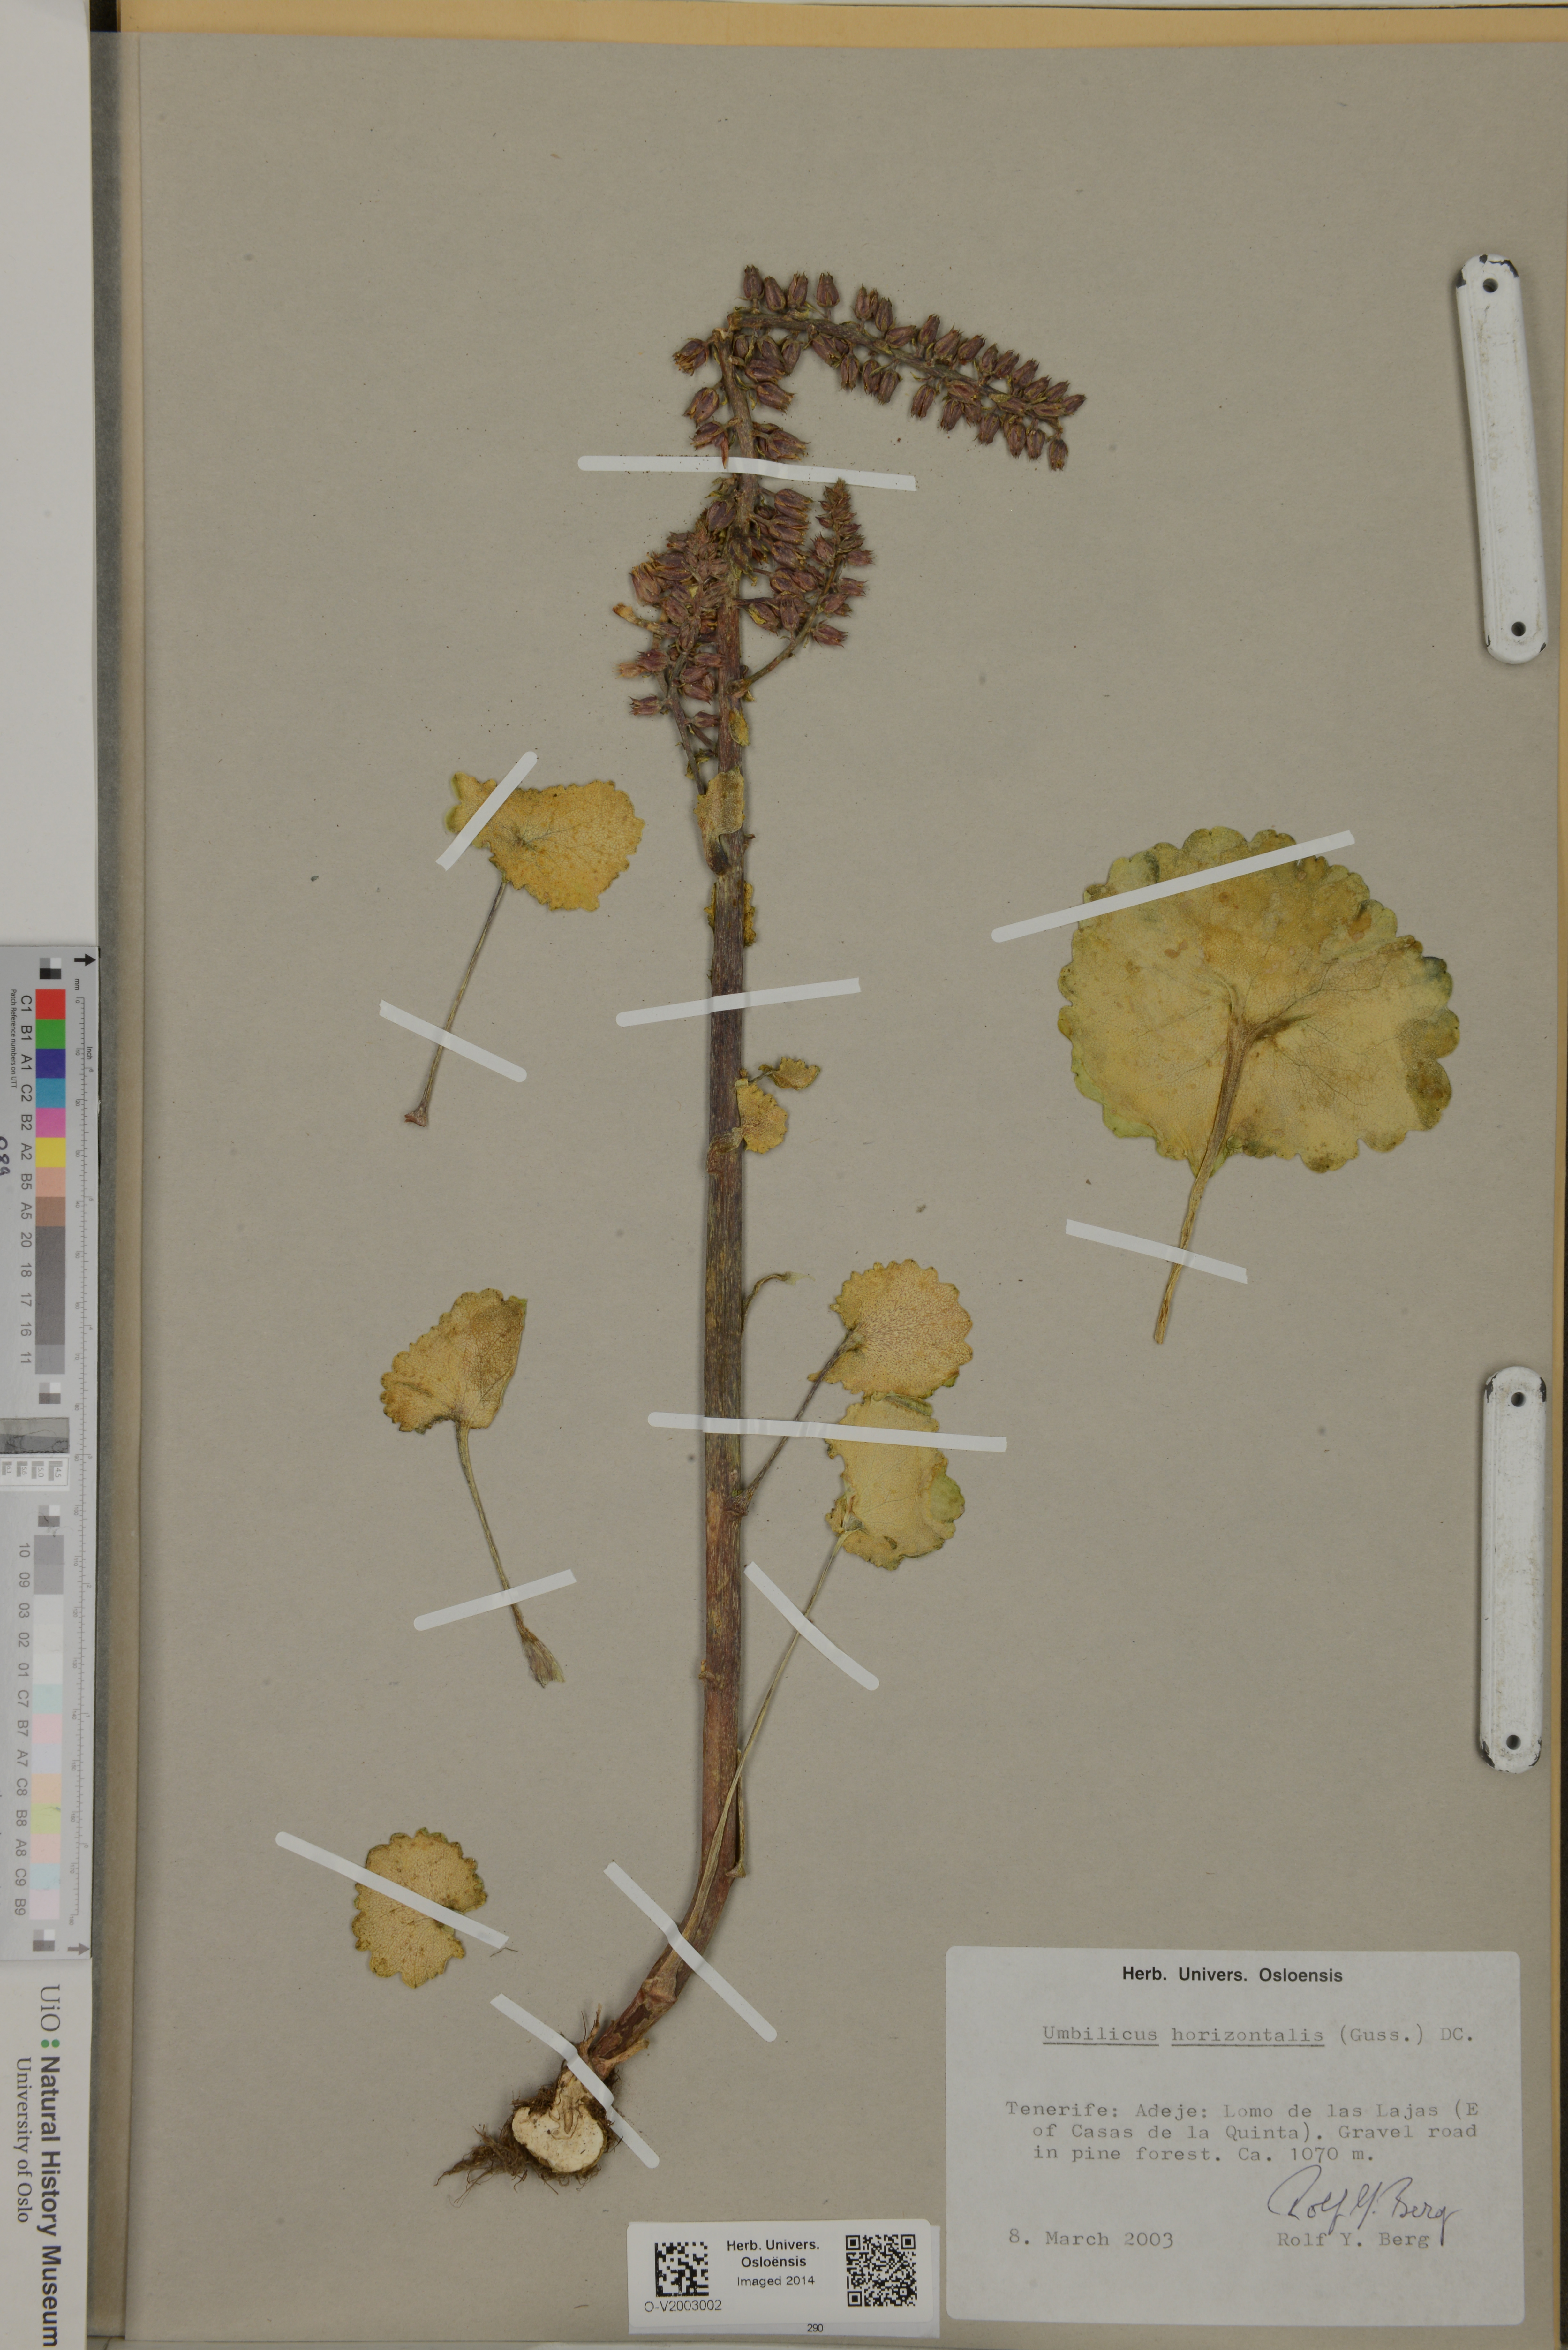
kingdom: Plantae
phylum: Tracheophyta
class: Magnoliopsida
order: Saxifragales
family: Crassulaceae
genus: Umbilicus
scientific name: Umbilicus horizontalis
